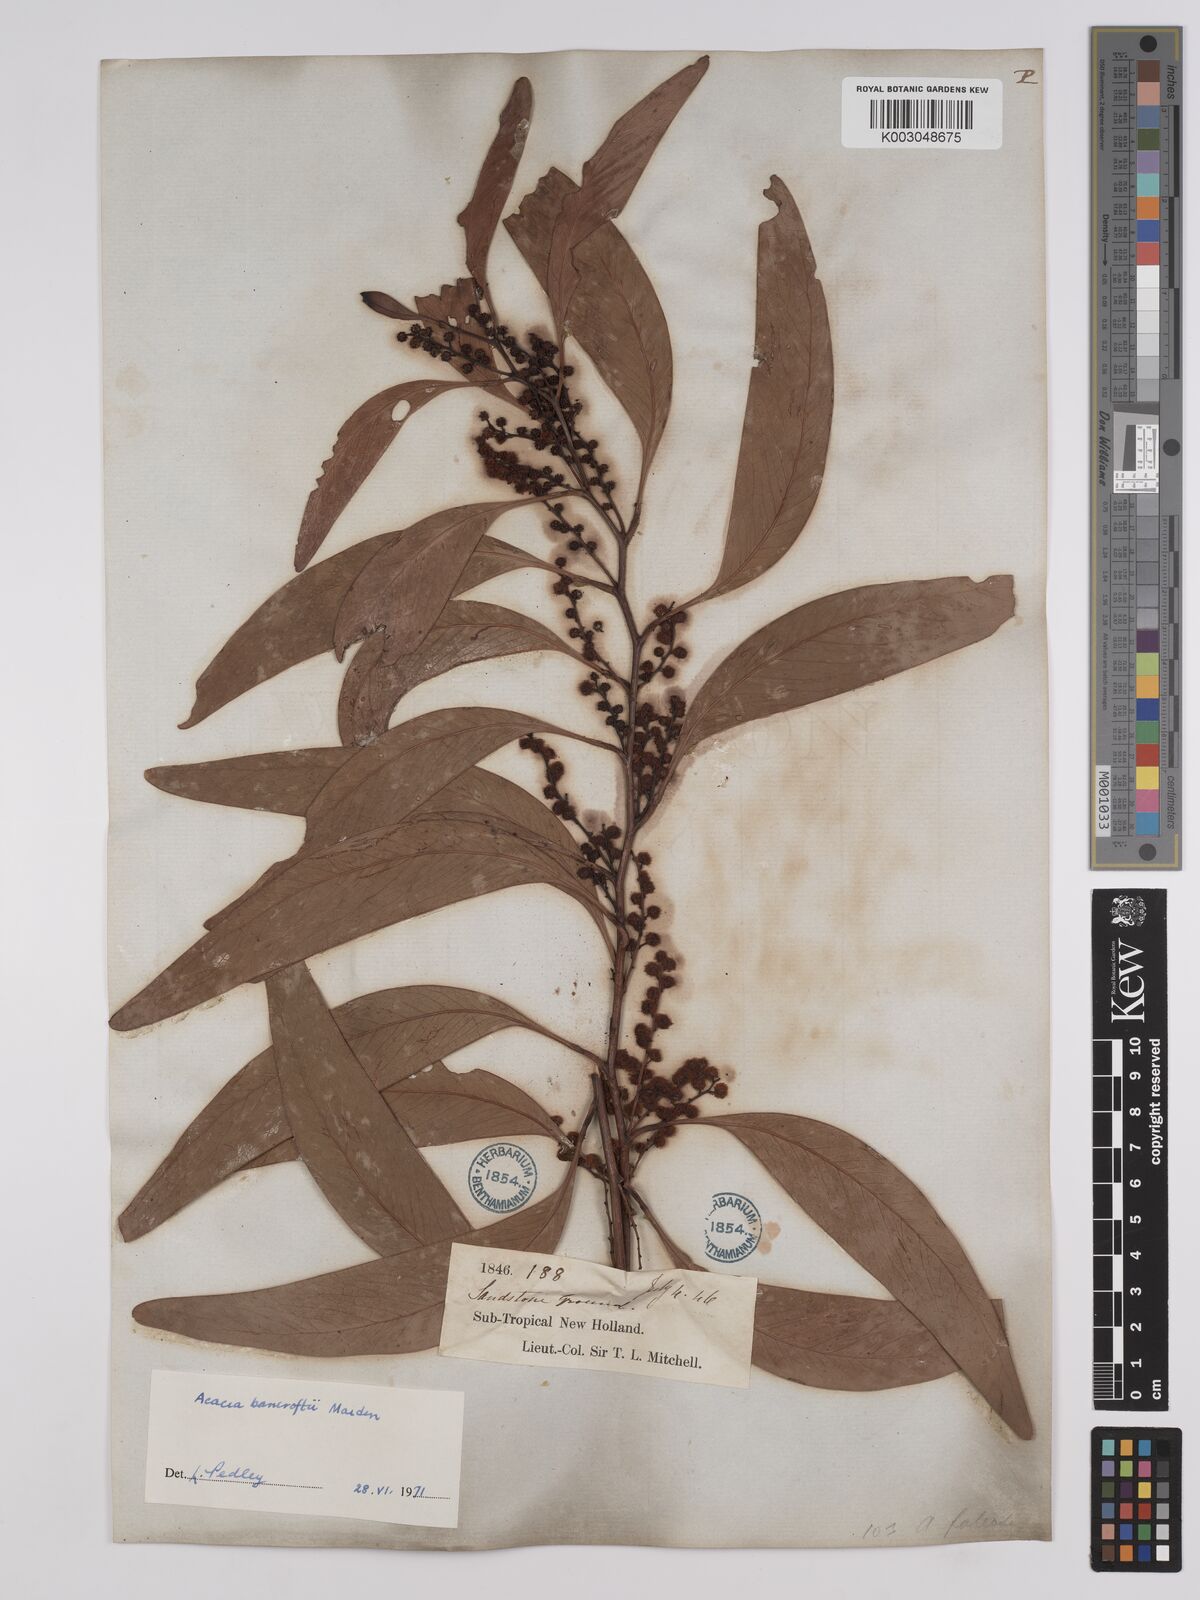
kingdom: Plantae
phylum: Tracheophyta
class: Magnoliopsida
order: Fabales
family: Fabaceae
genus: Acacia
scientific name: Acacia
